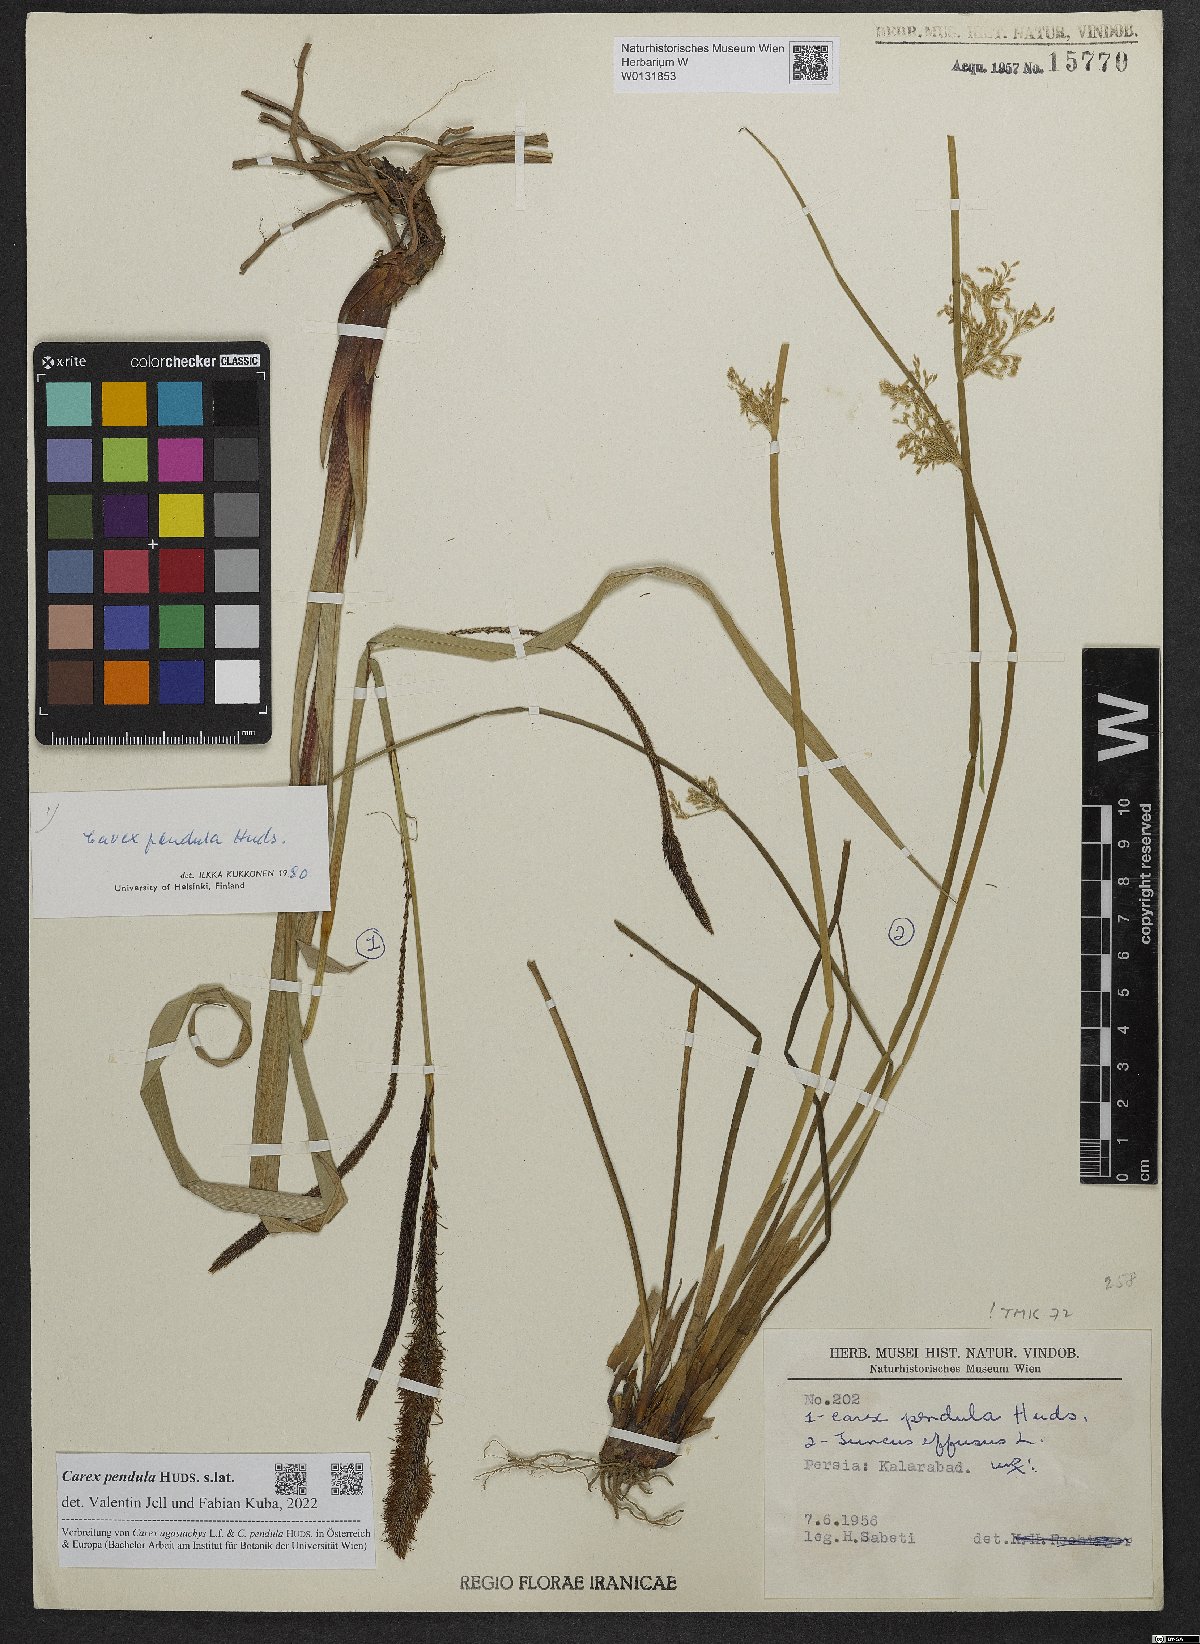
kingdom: Plantae
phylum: Tracheophyta
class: Liliopsida
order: Poales
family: Cyperaceae
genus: Carex
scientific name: Carex pendula
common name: Pendulous sedge
